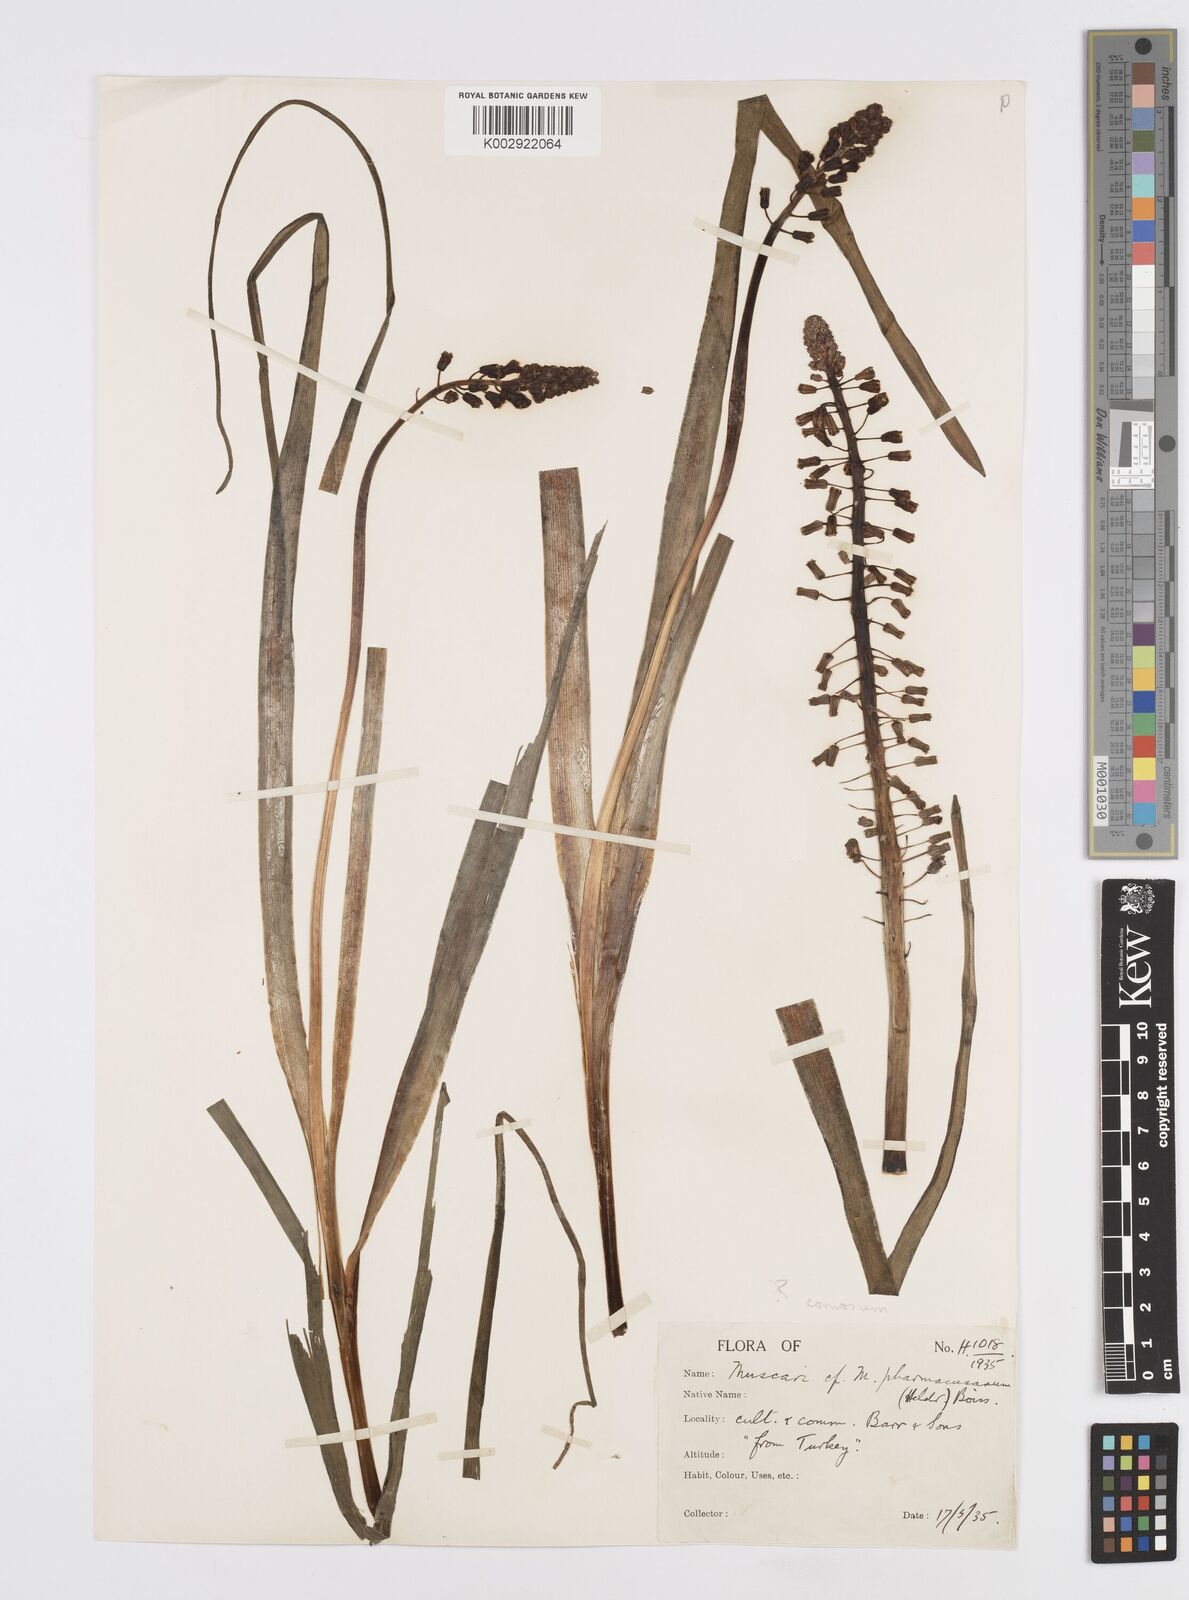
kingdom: Plantae
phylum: Tracheophyta
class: Liliopsida
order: Asparagales
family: Asparagaceae
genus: Muscari
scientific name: Muscari caucasicum
